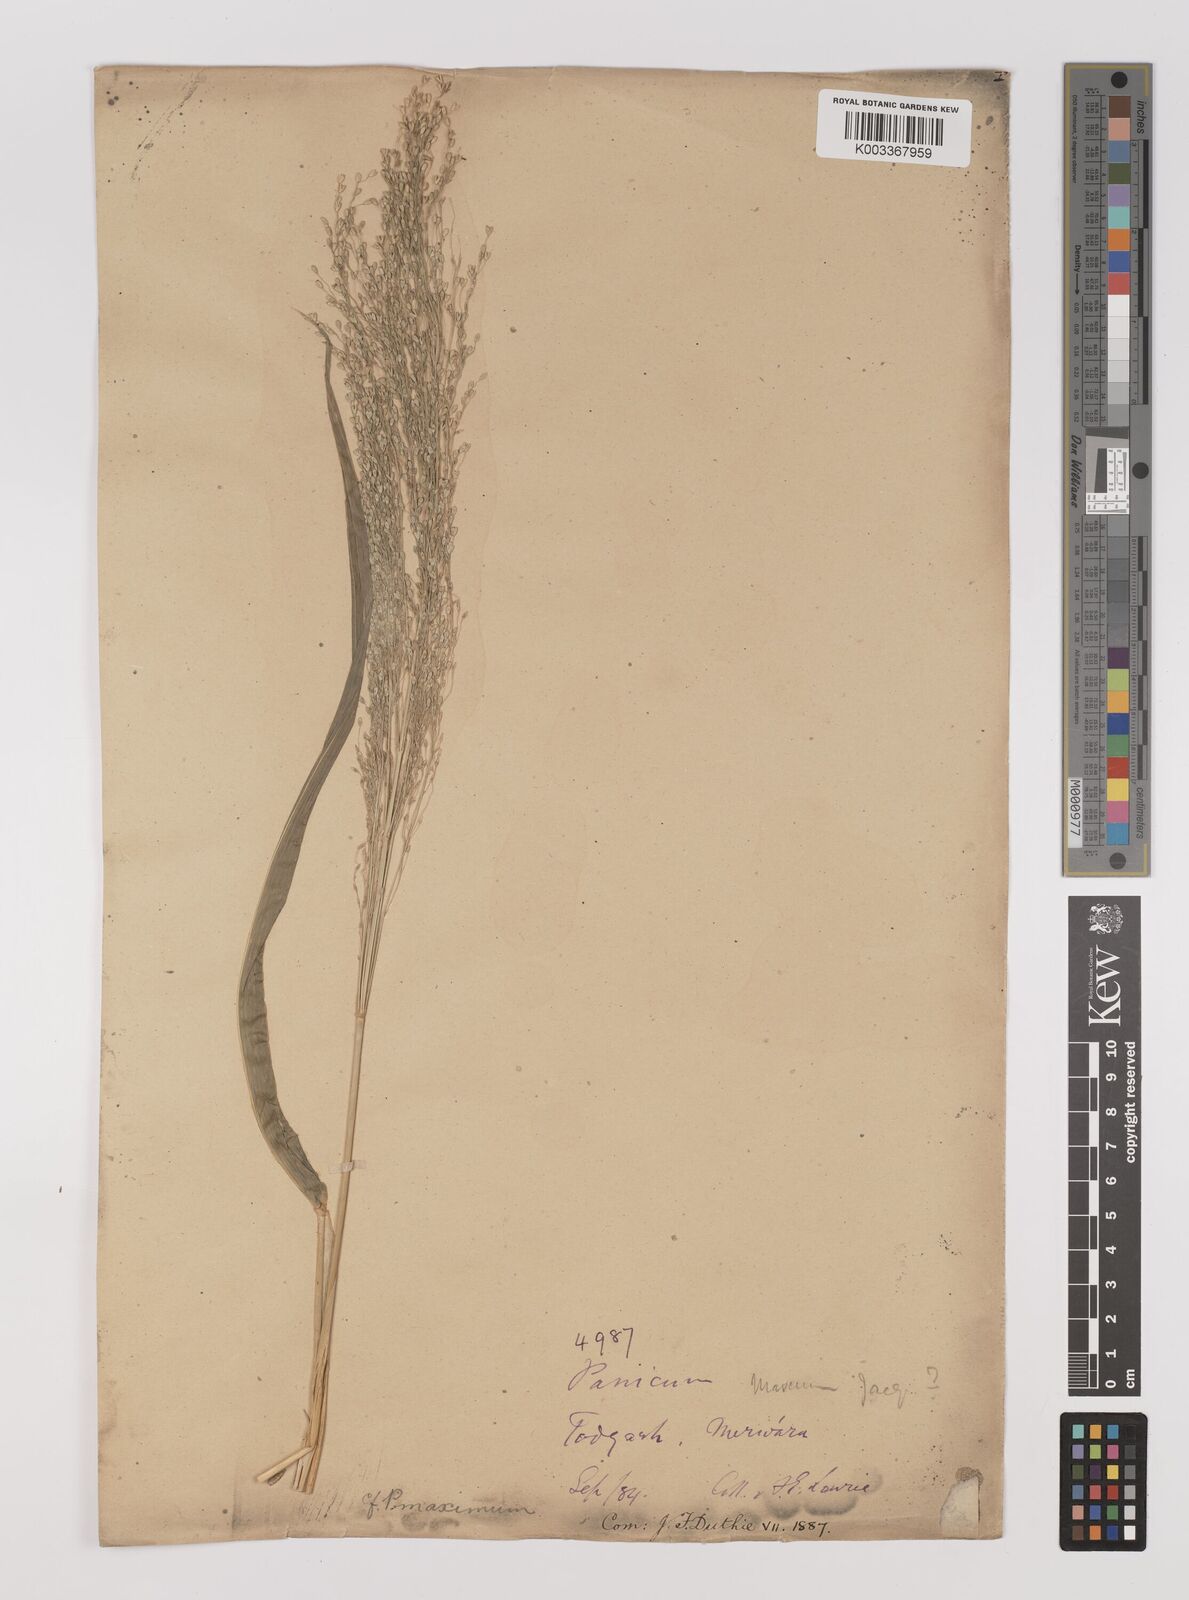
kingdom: Plantae
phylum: Tracheophyta
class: Liliopsida
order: Poales
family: Poaceae
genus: Megathyrsus
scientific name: Megathyrsus maximus
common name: Guineagrass
